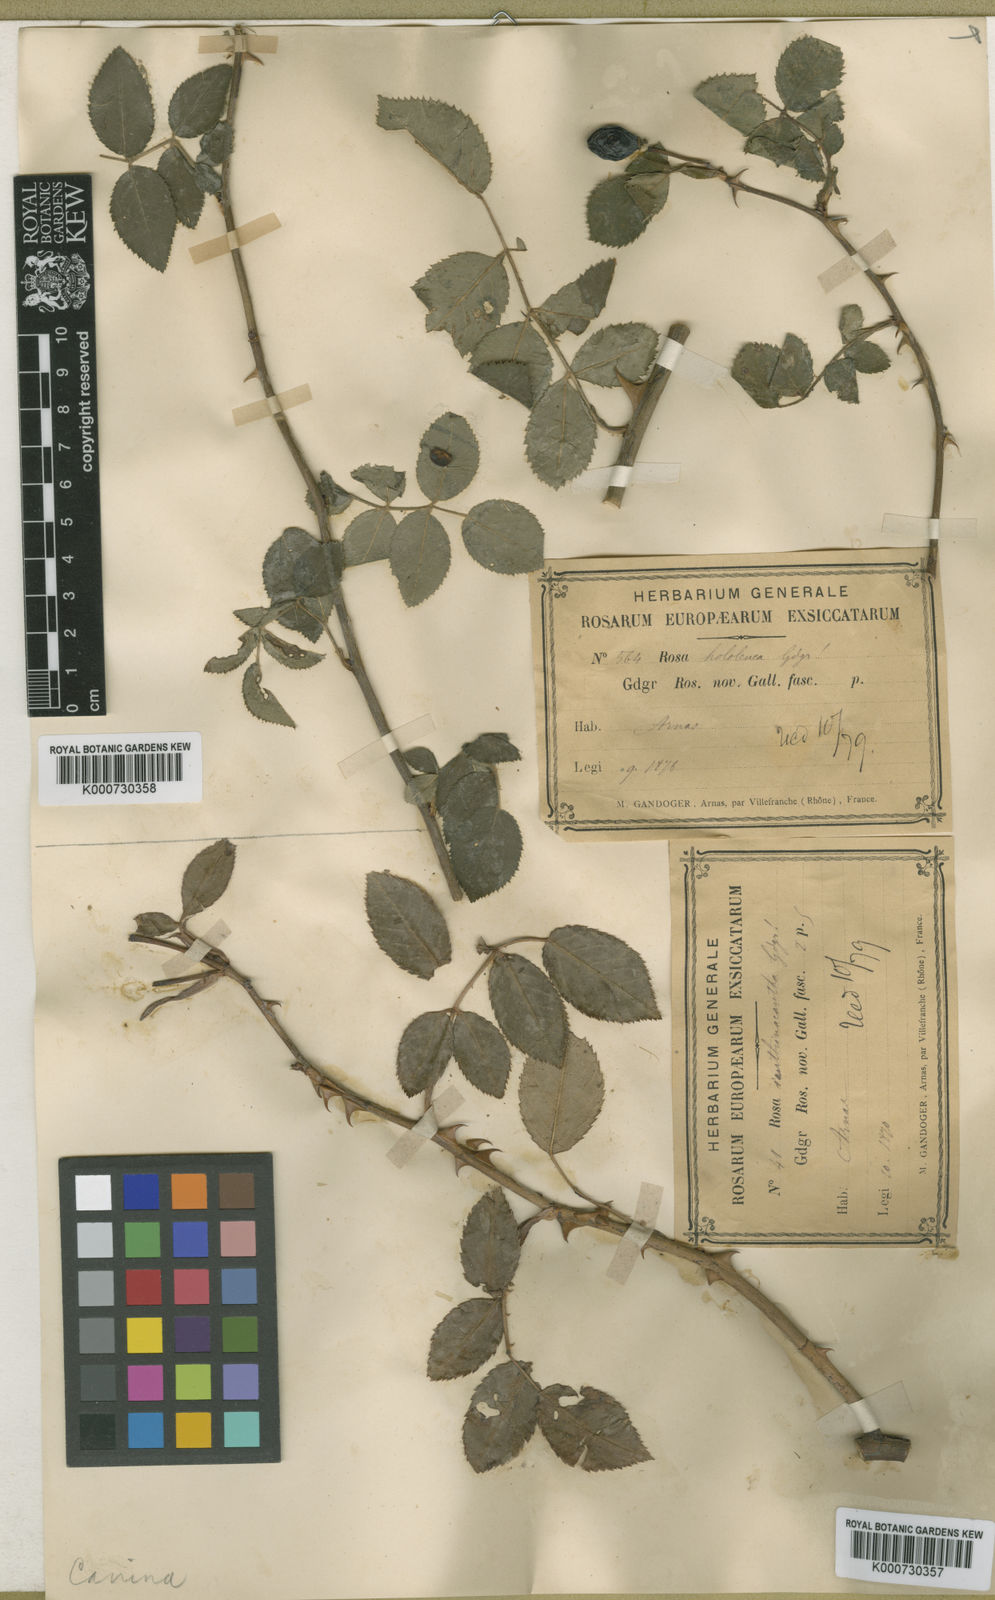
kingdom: Plantae
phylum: Tracheophyta
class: Magnoliopsida
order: Rosales
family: Rosaceae
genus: Rosa
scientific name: Rosa canina
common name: Dog rose
